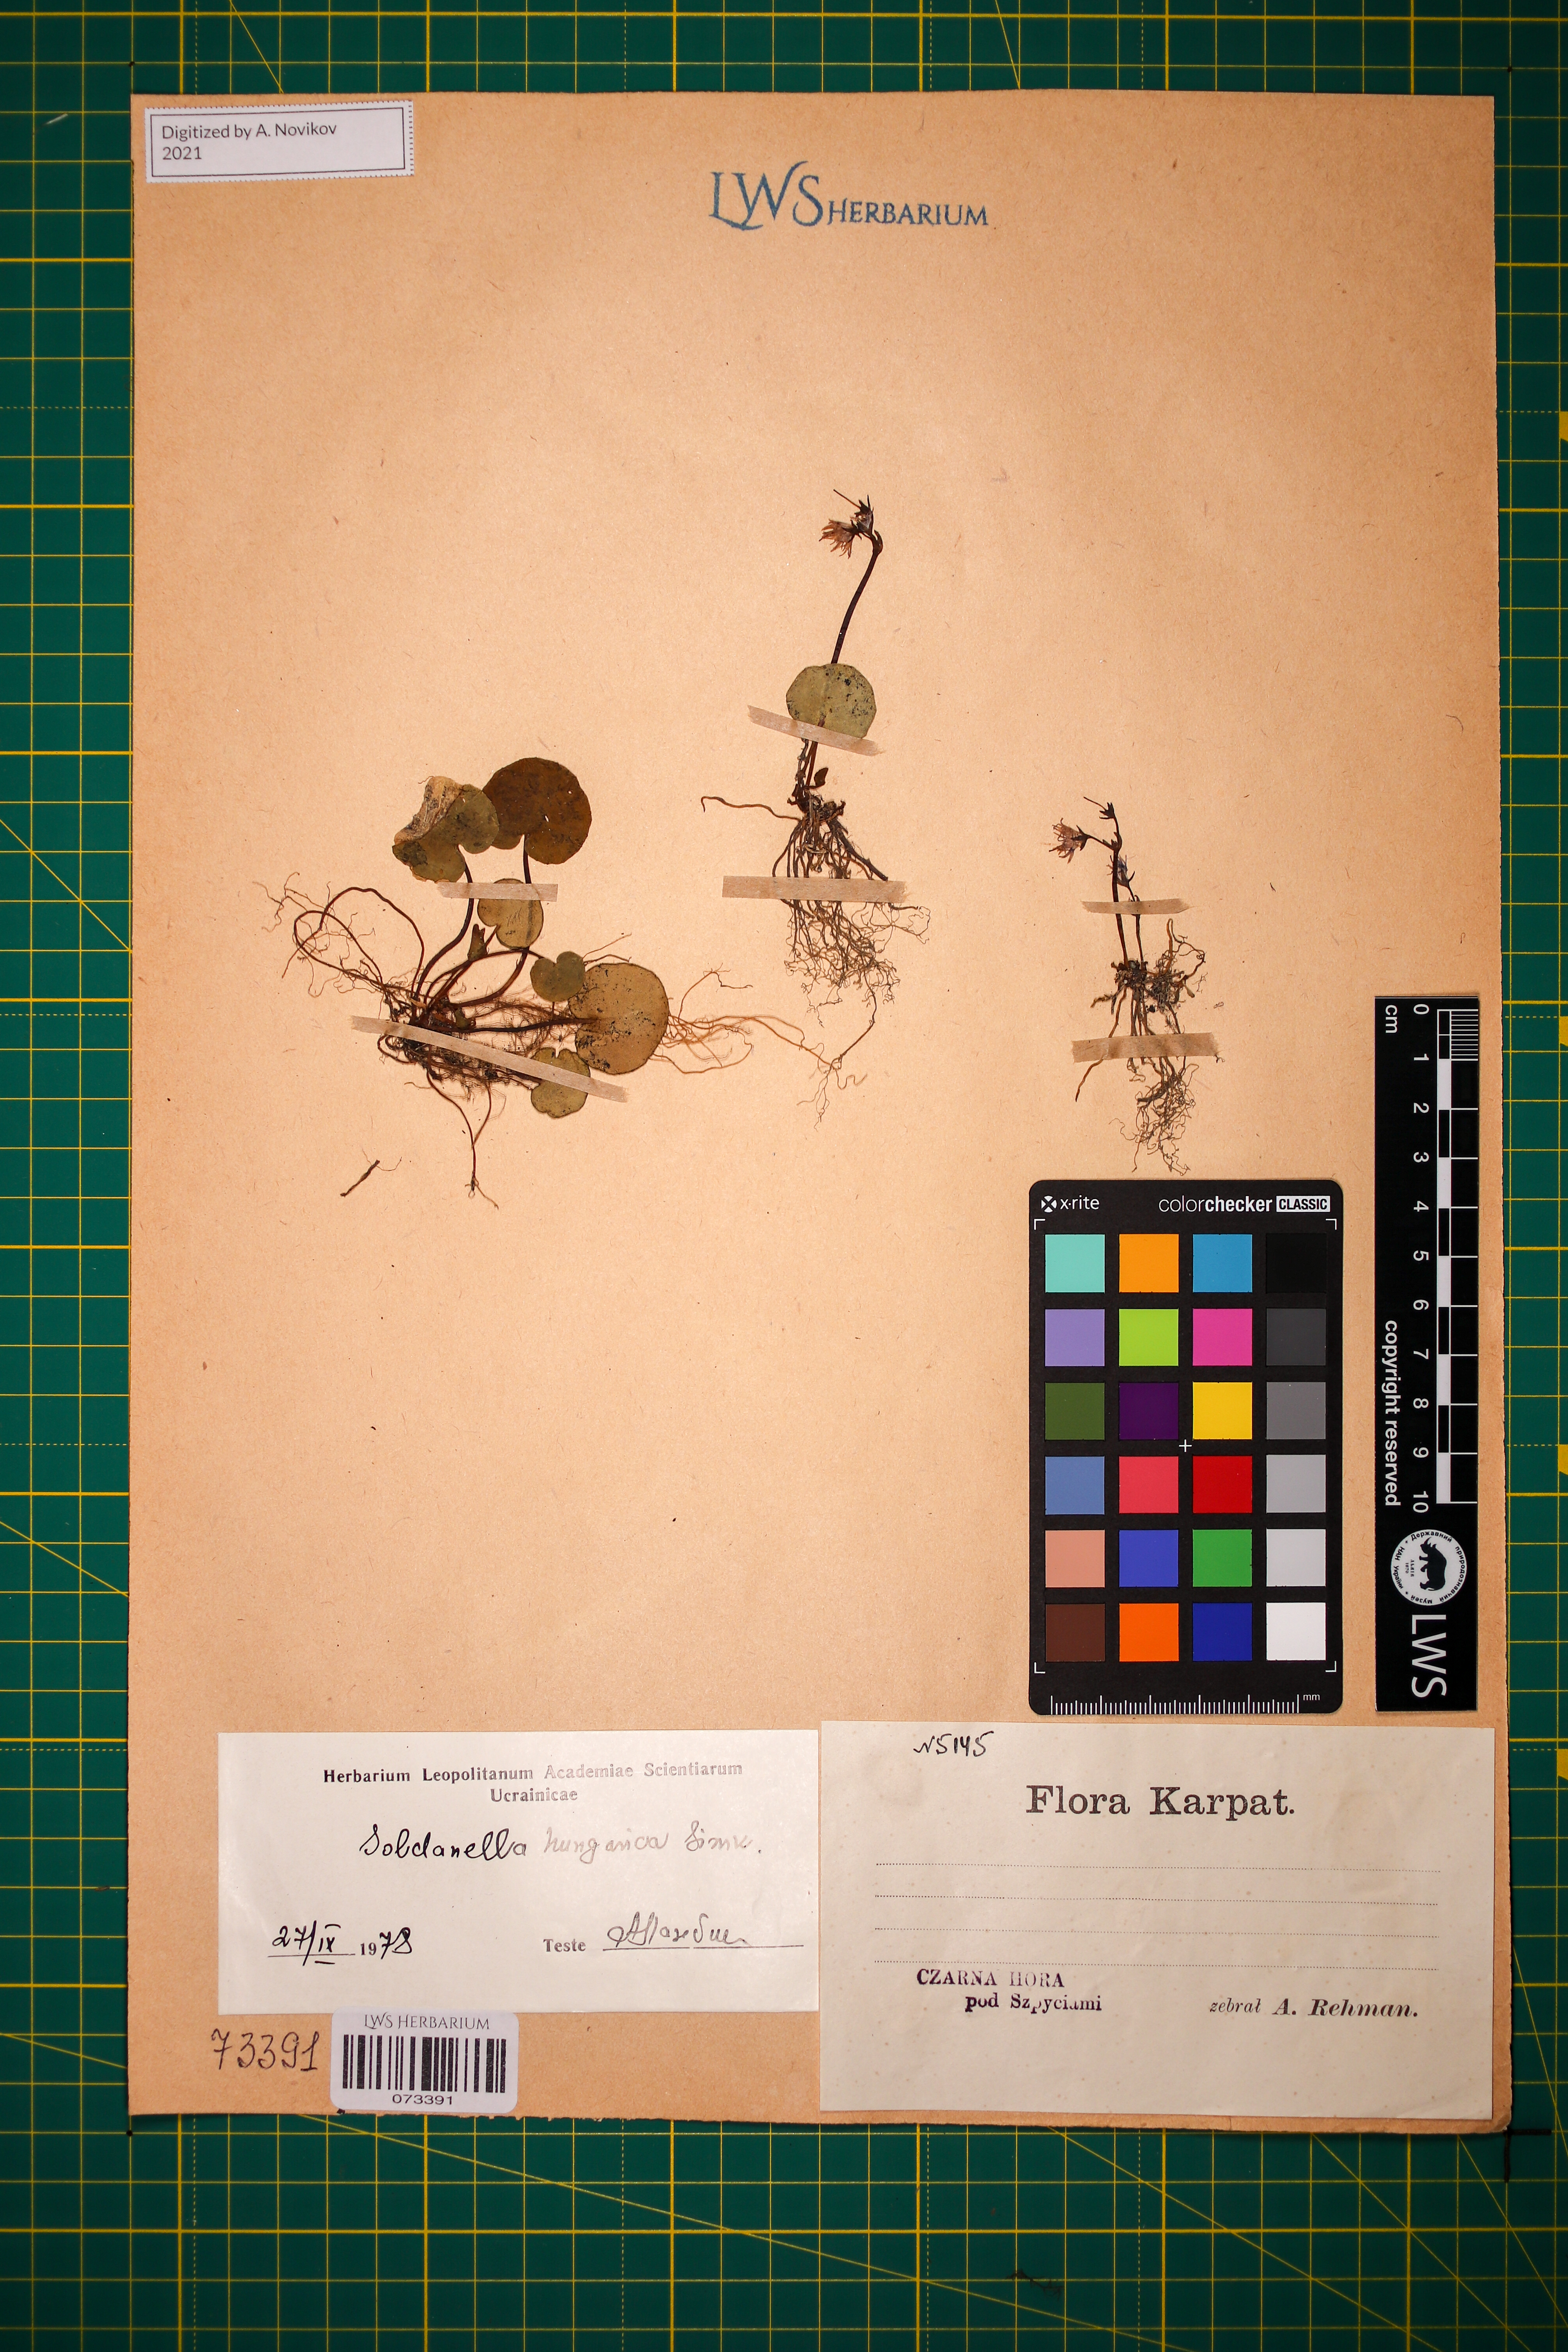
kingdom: Plantae
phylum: Tracheophyta
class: Magnoliopsida
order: Ericales
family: Primulaceae
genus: Soldanella
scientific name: Soldanella hungarica
